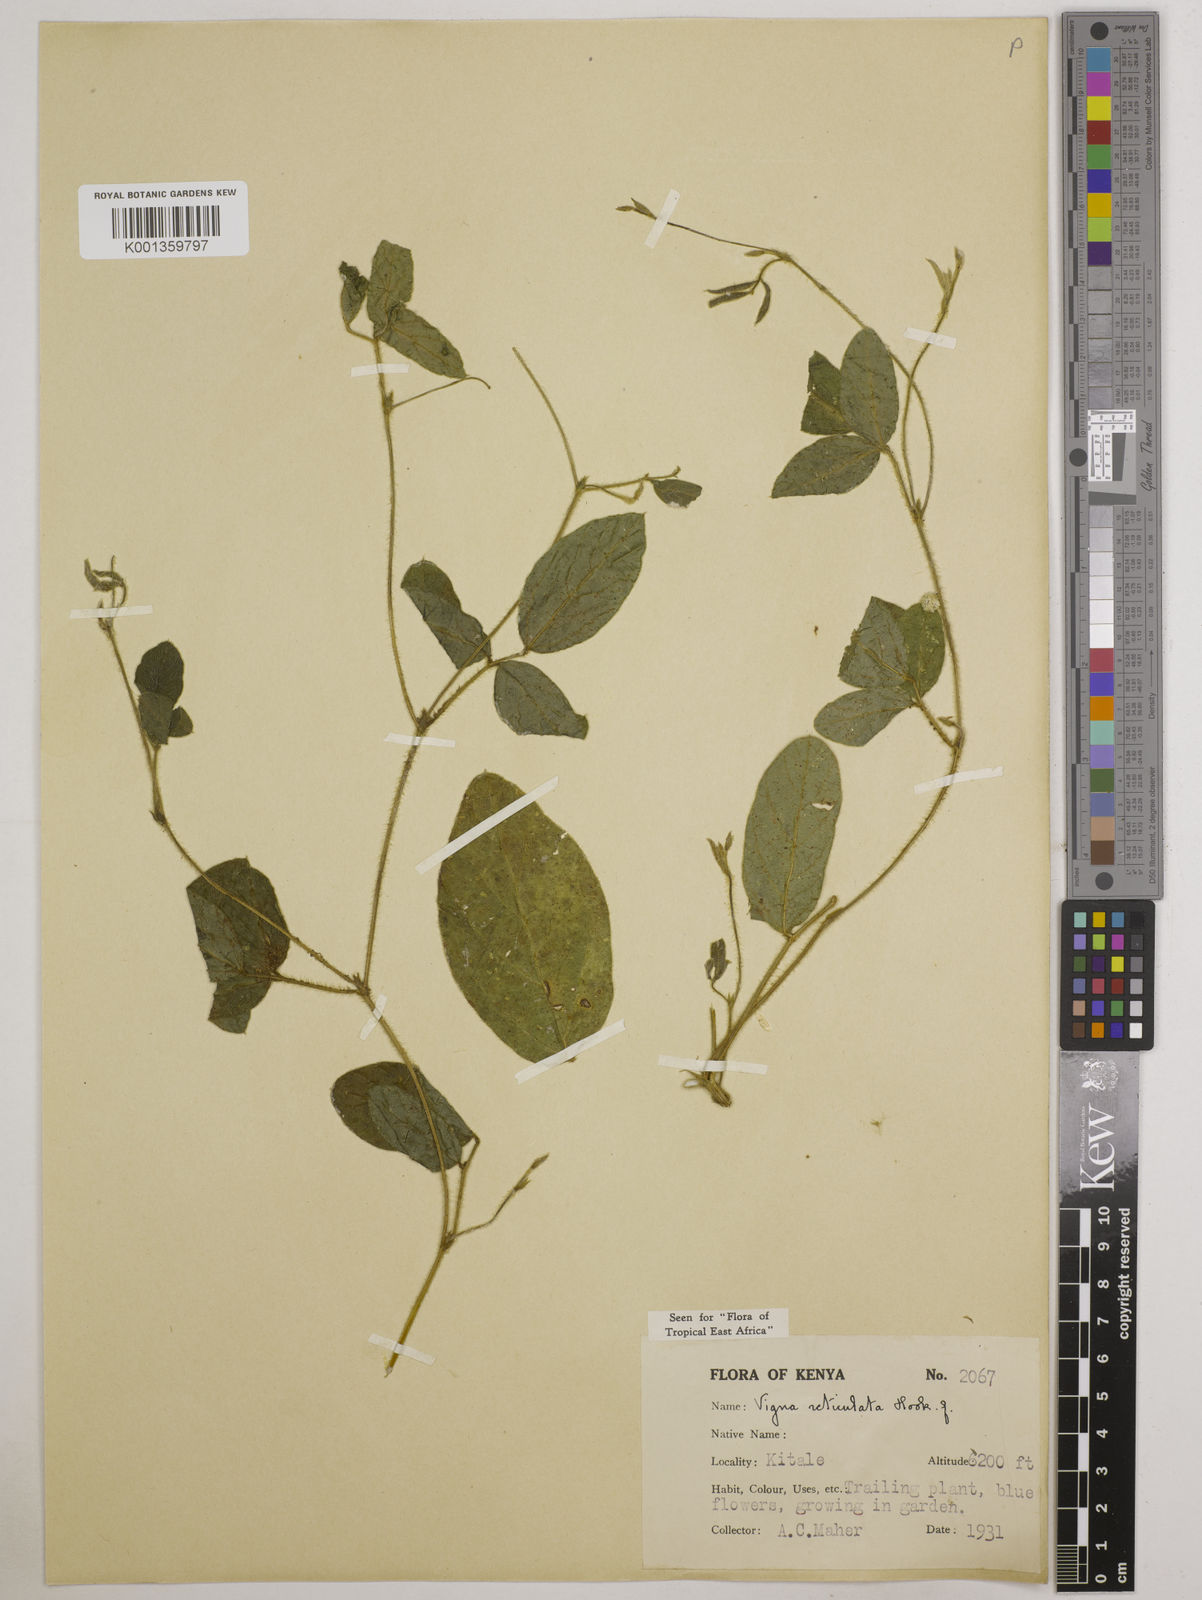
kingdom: Plantae
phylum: Tracheophyta
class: Magnoliopsida
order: Fabales
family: Fabaceae
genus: Vigna
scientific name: Vigna reticulata
